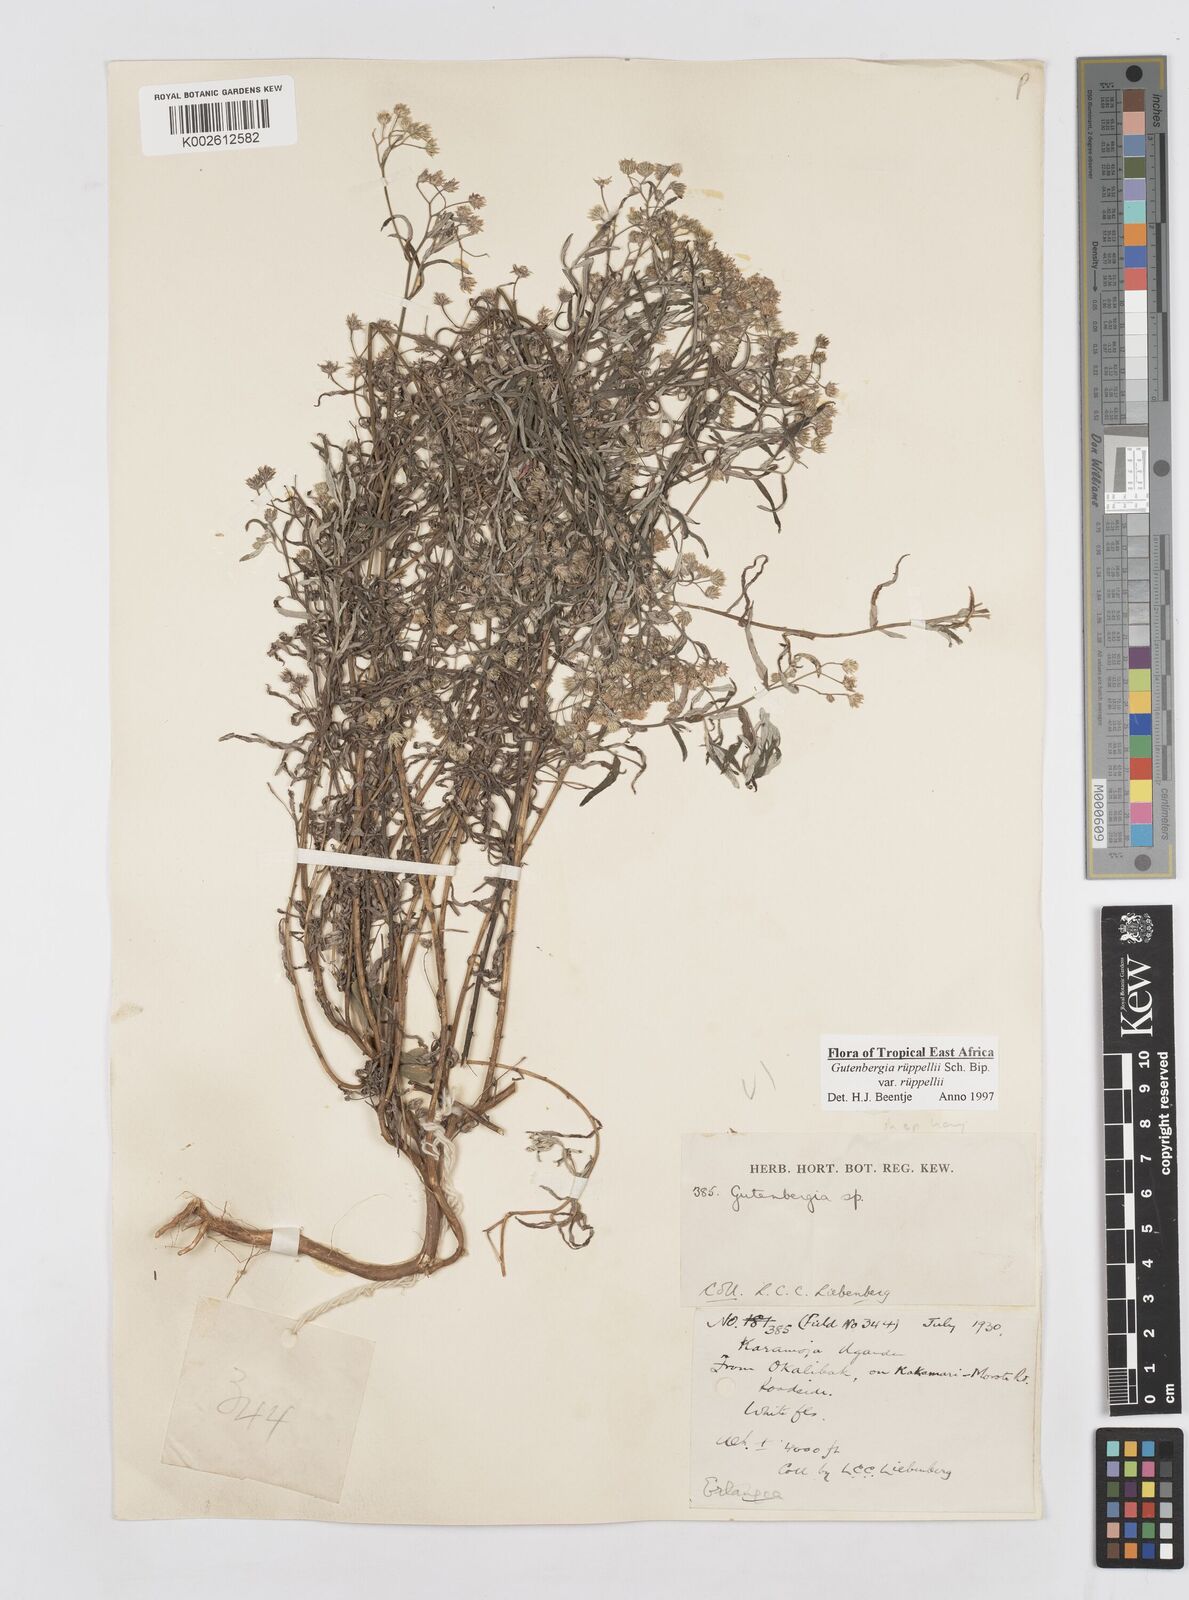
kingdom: Plantae
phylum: Tracheophyta
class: Magnoliopsida
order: Asterales
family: Asteraceae
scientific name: Asteraceae
